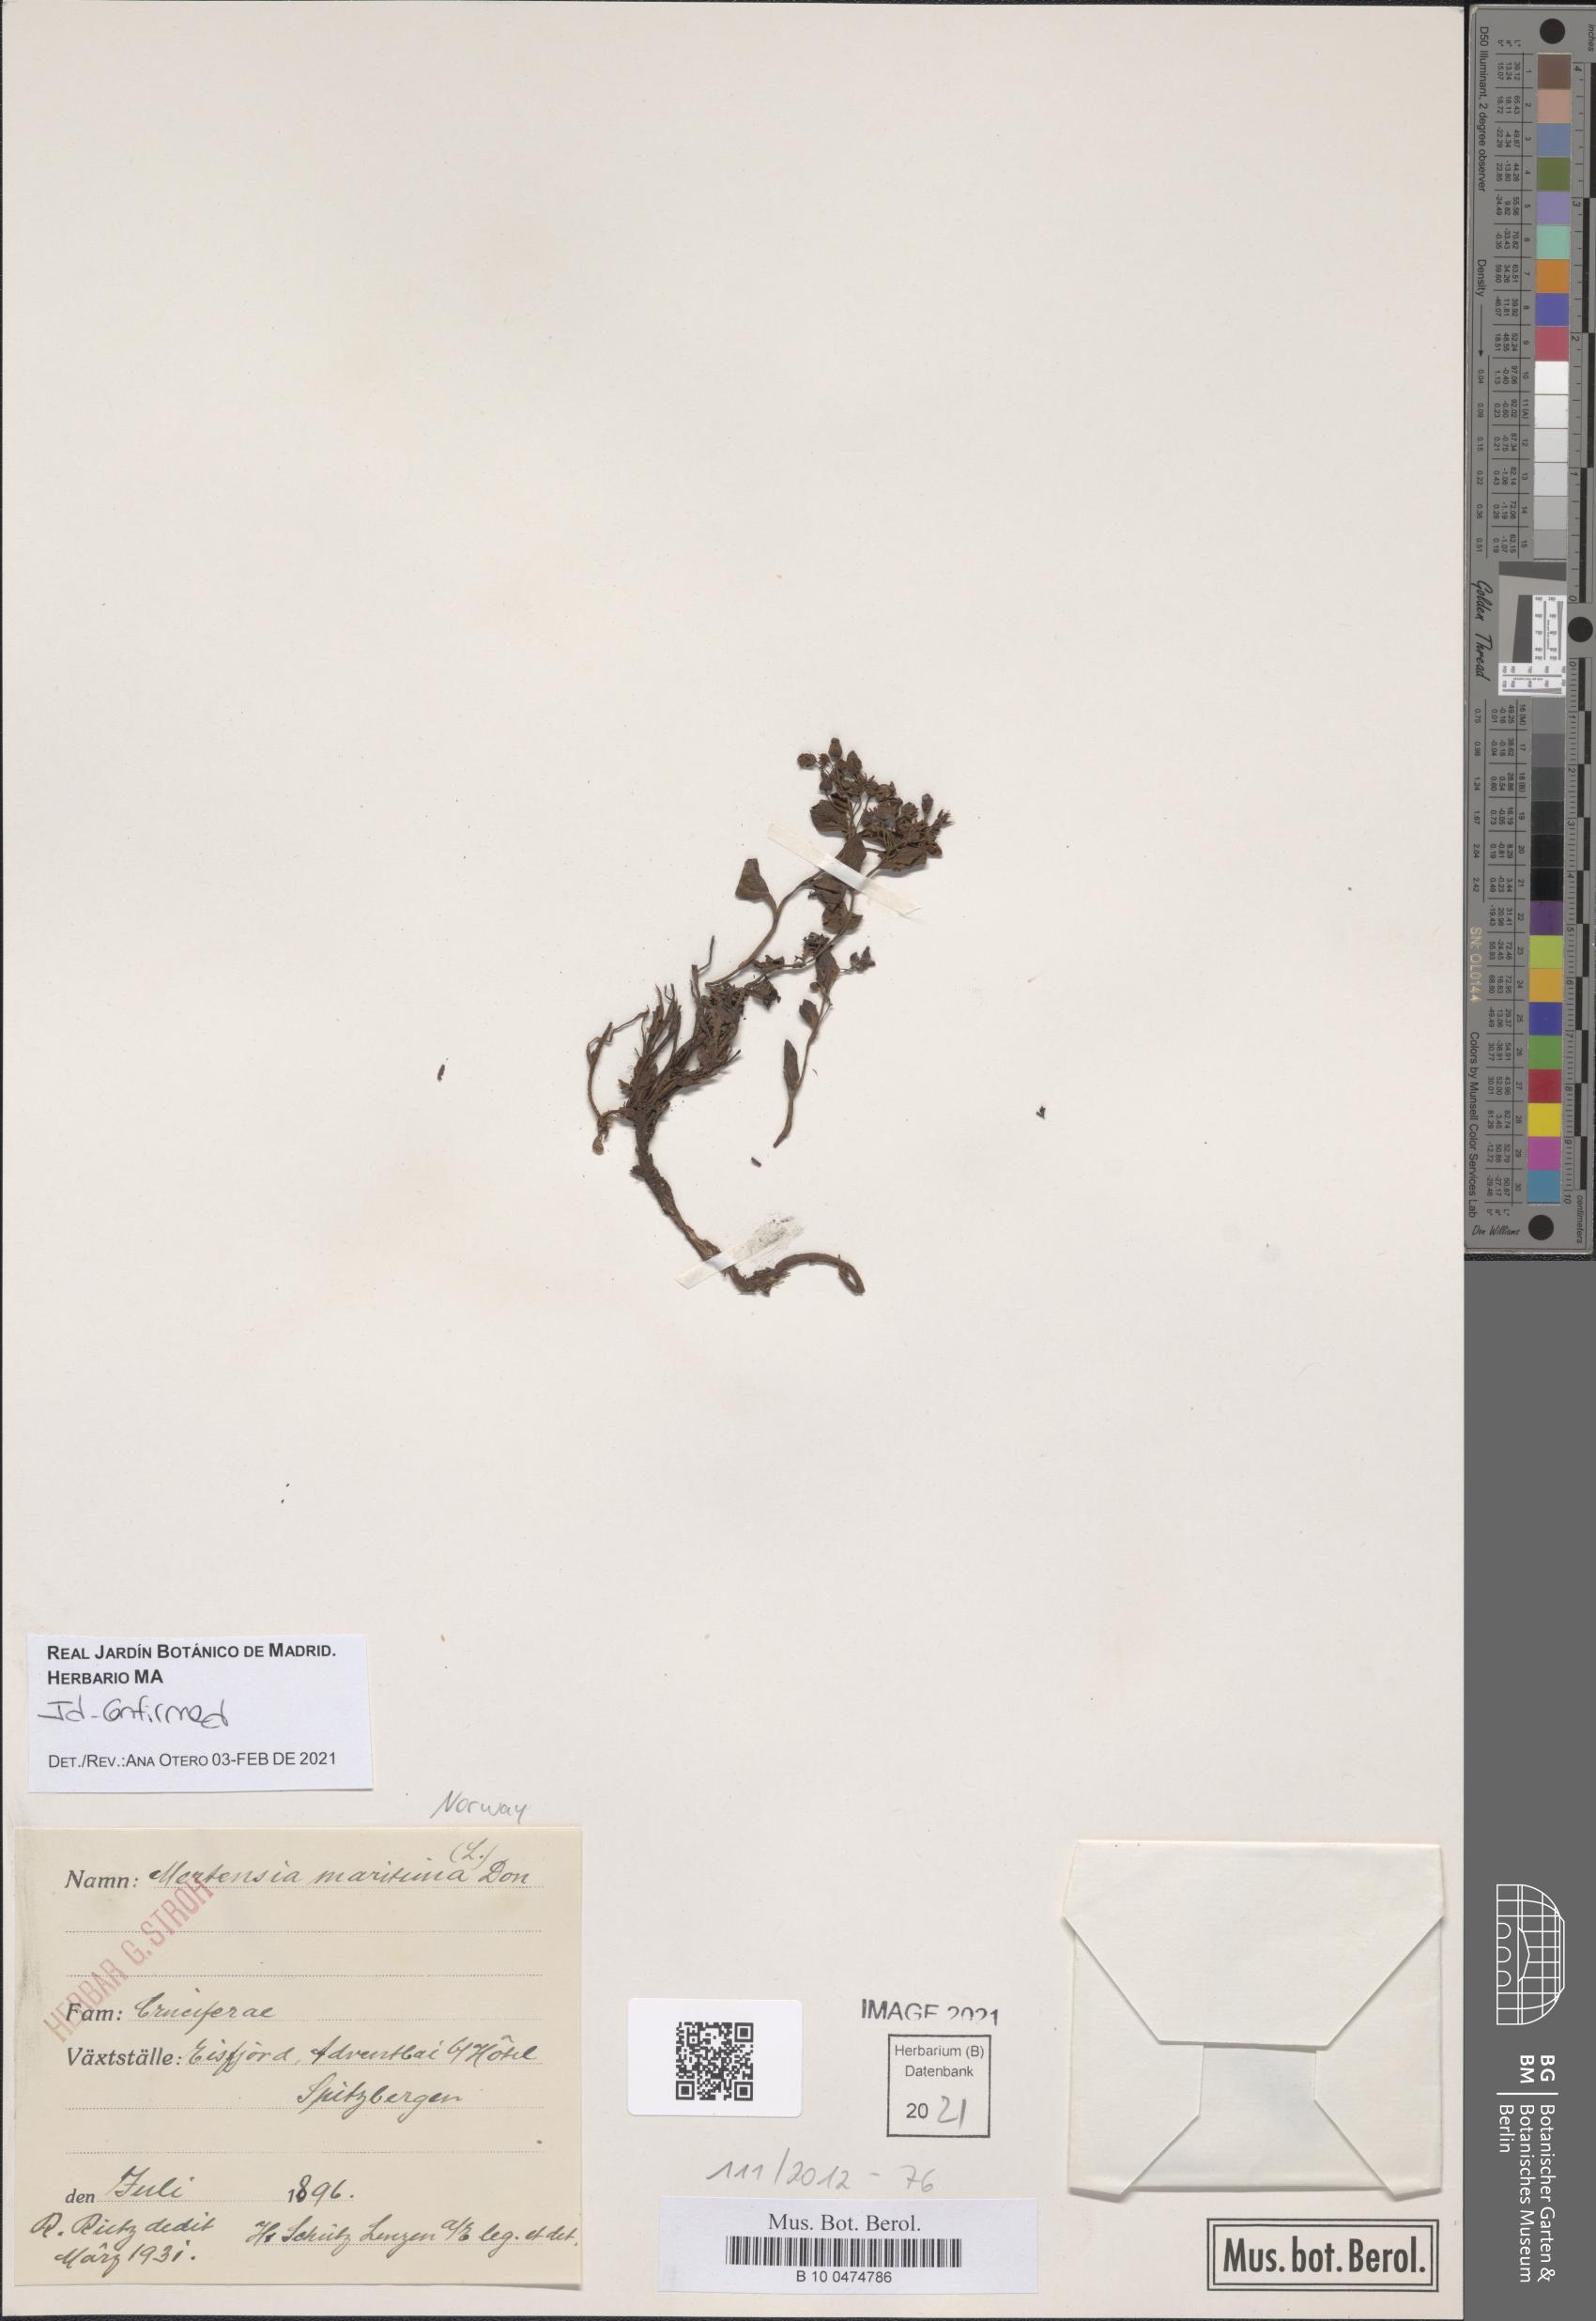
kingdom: Plantae
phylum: Tracheophyta
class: Magnoliopsida
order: Boraginales
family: Boraginaceae
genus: Mertensia
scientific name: Mertensia maritima
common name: Oysterplant
